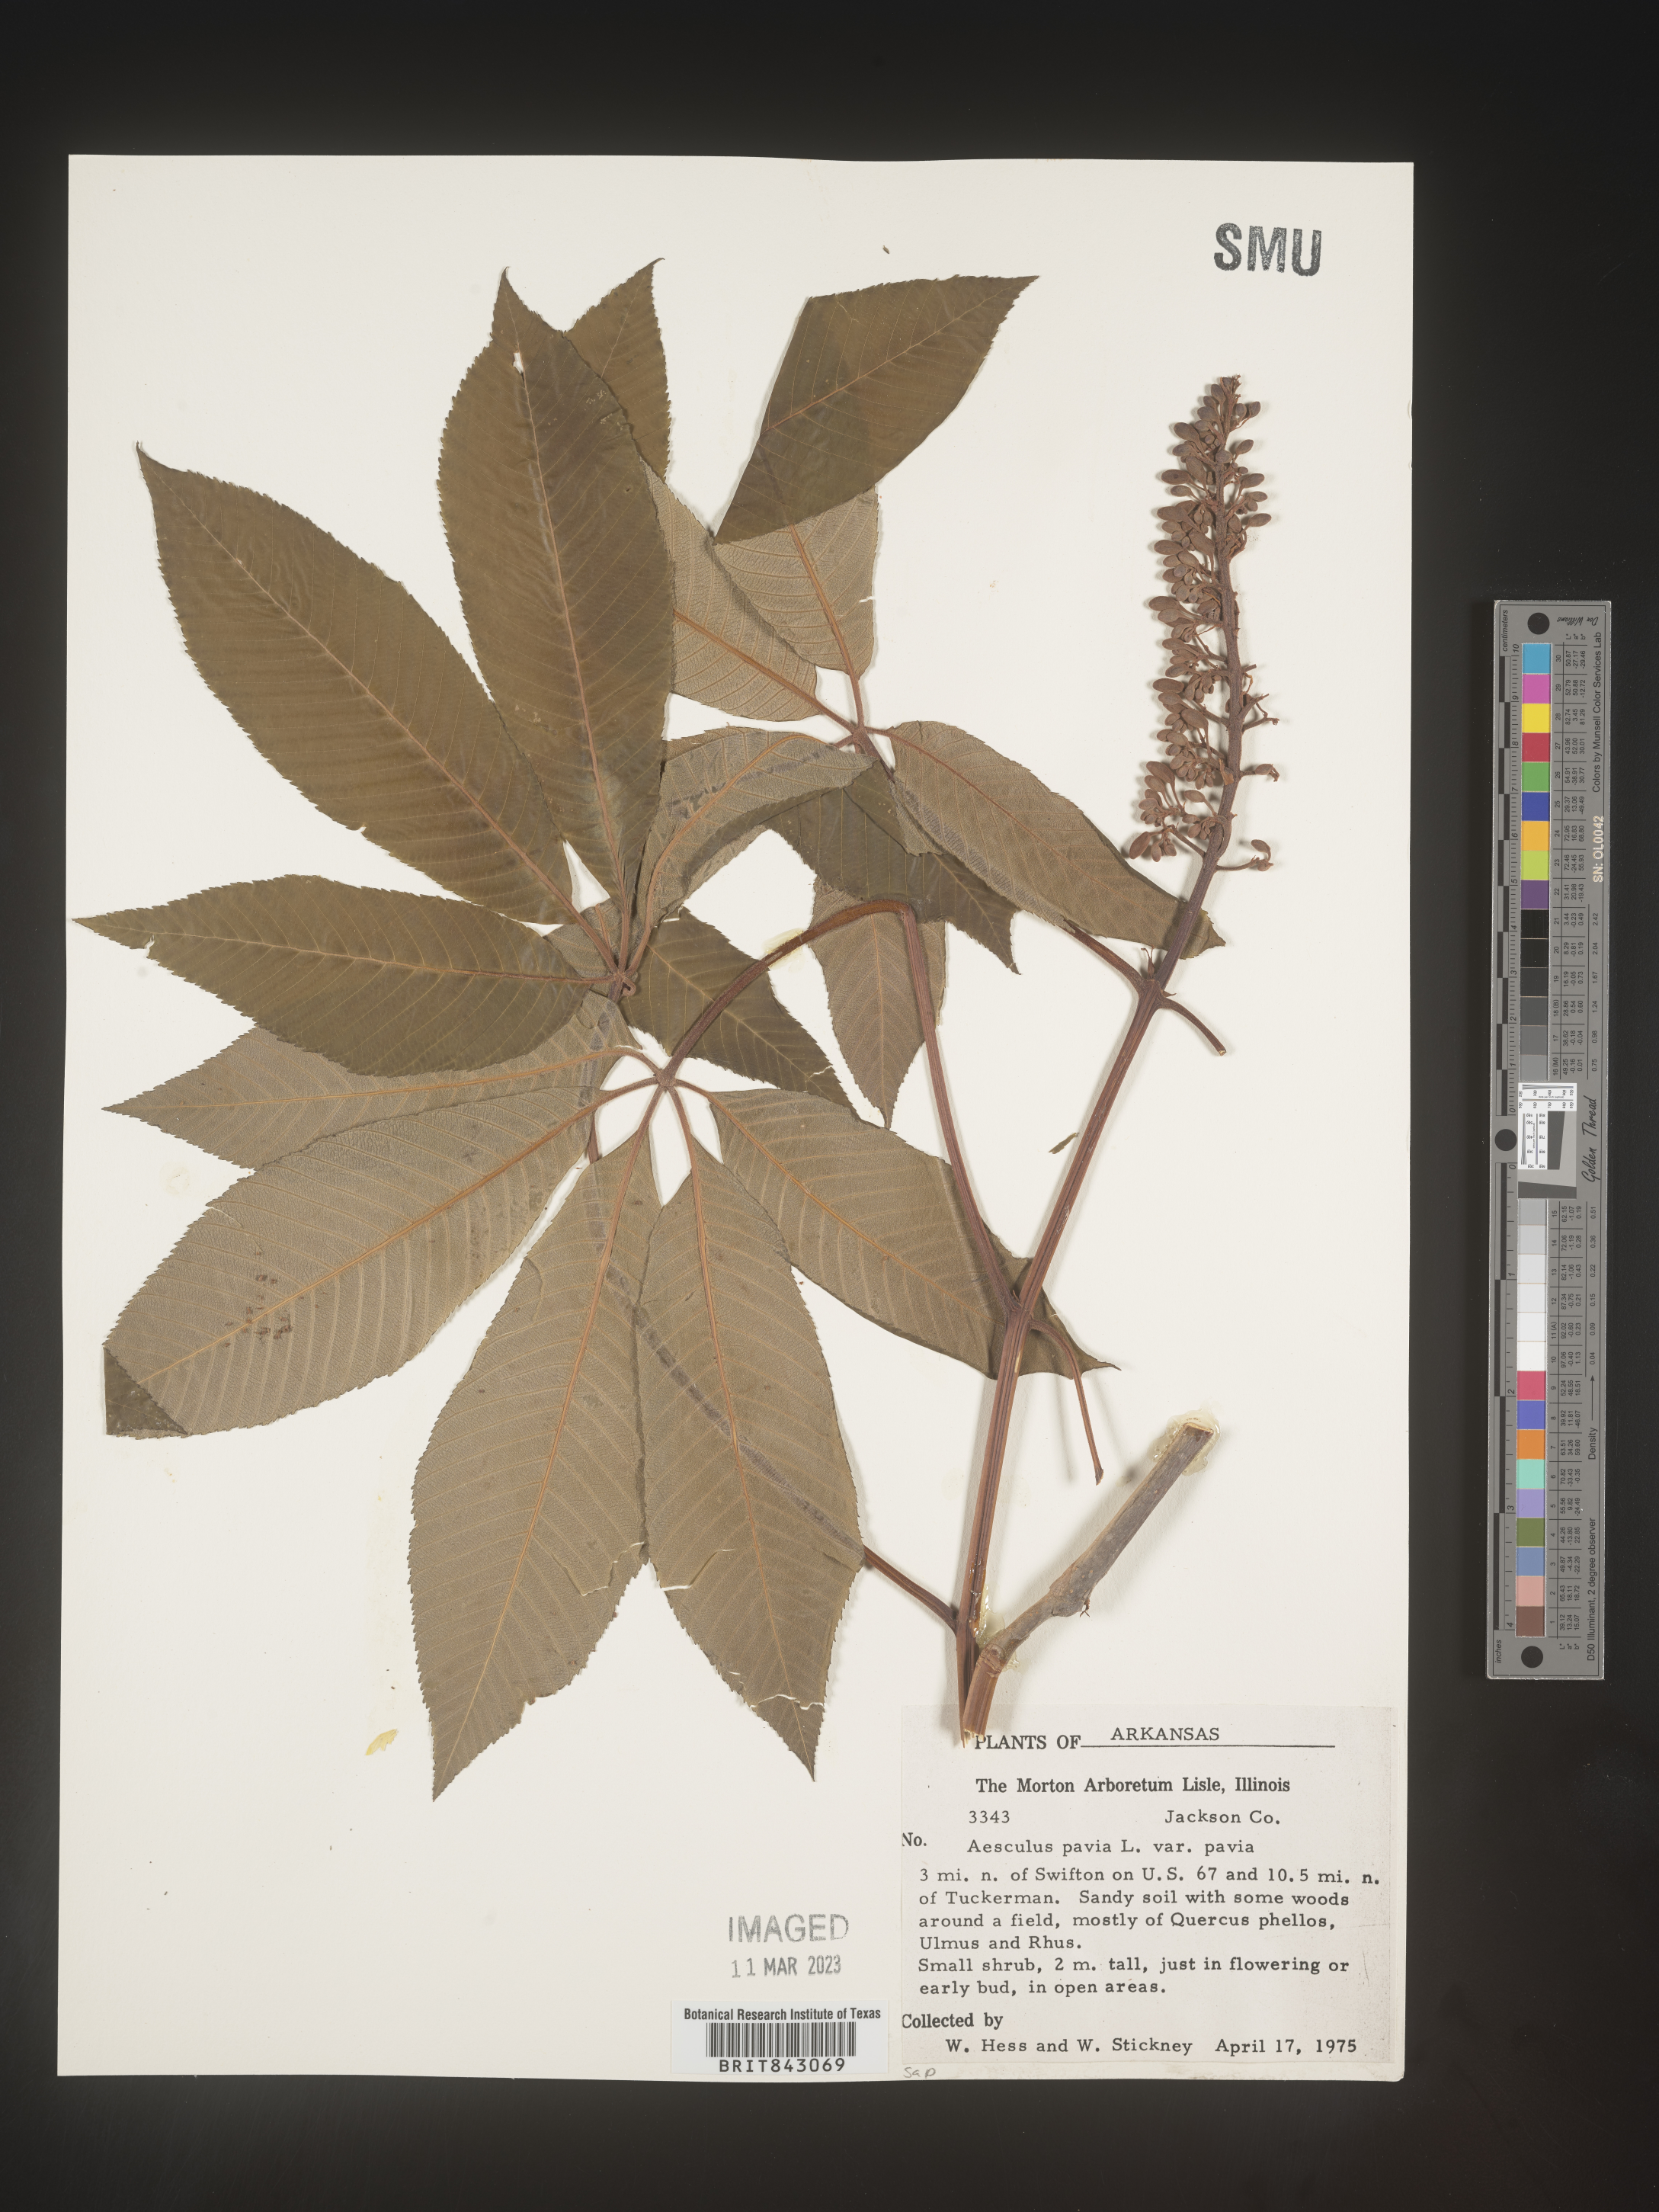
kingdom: Plantae
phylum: Tracheophyta
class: Magnoliopsida
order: Sapindales
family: Sapindaceae
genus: Aesculus
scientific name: Aesculus pavia
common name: Red buckeye
